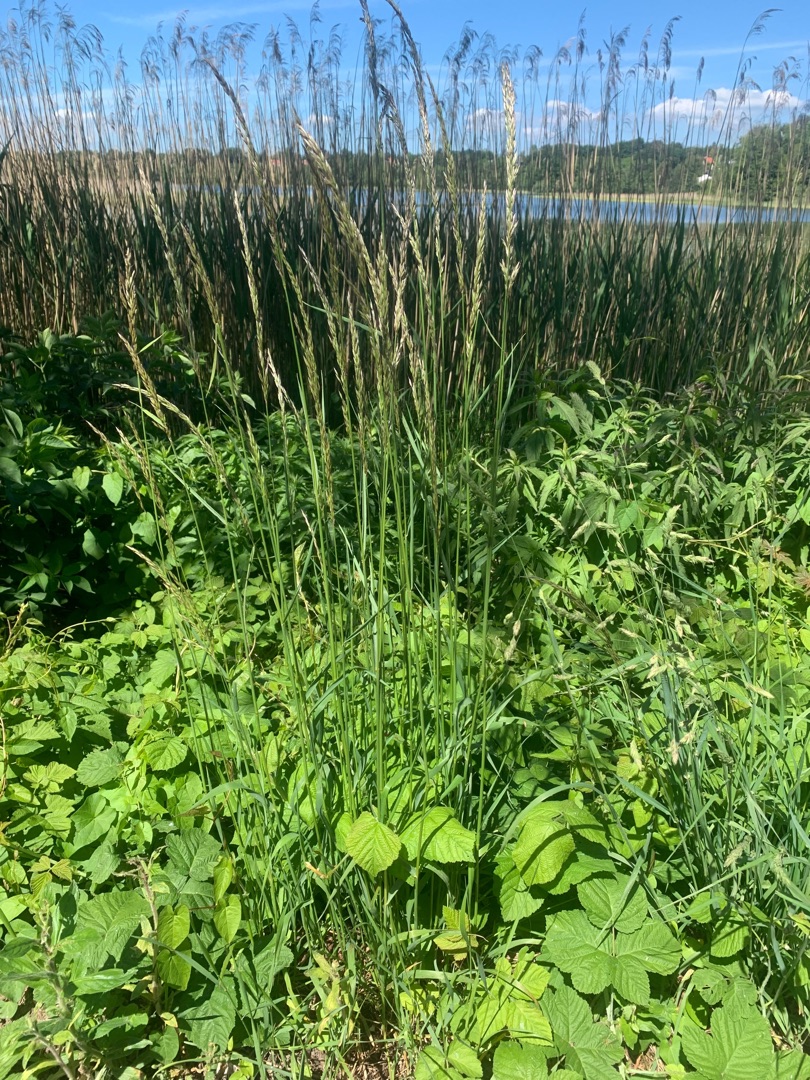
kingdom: Plantae
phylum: Tracheophyta
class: Liliopsida
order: Poales
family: Poaceae
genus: Arrhenatherum
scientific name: Arrhenatherum elatius
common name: Draphavre
